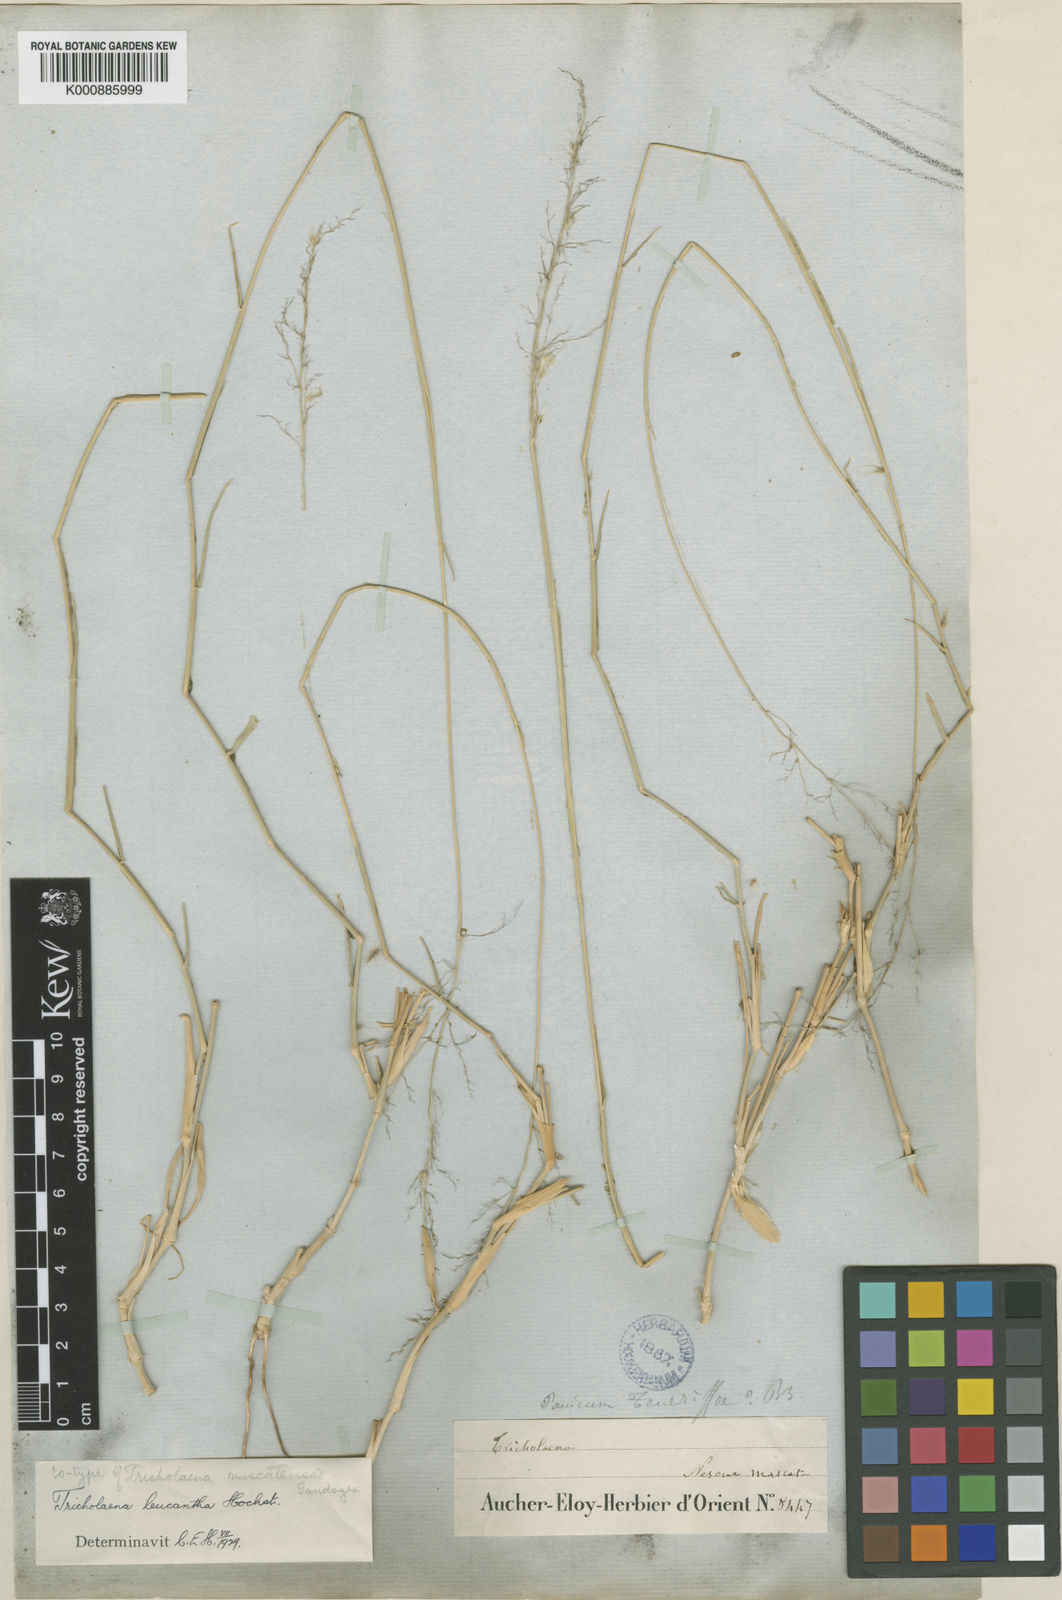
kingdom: Plantae
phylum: Tracheophyta
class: Liliopsida
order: Poales
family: Poaceae
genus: Tricholaena
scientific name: Tricholaena teneriffae
